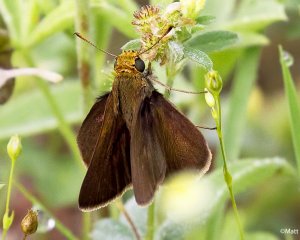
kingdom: Animalia
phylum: Arthropoda
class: Insecta
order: Lepidoptera
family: Hesperiidae
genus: Euphyes
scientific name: Euphyes vestris
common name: Dun Skipper
